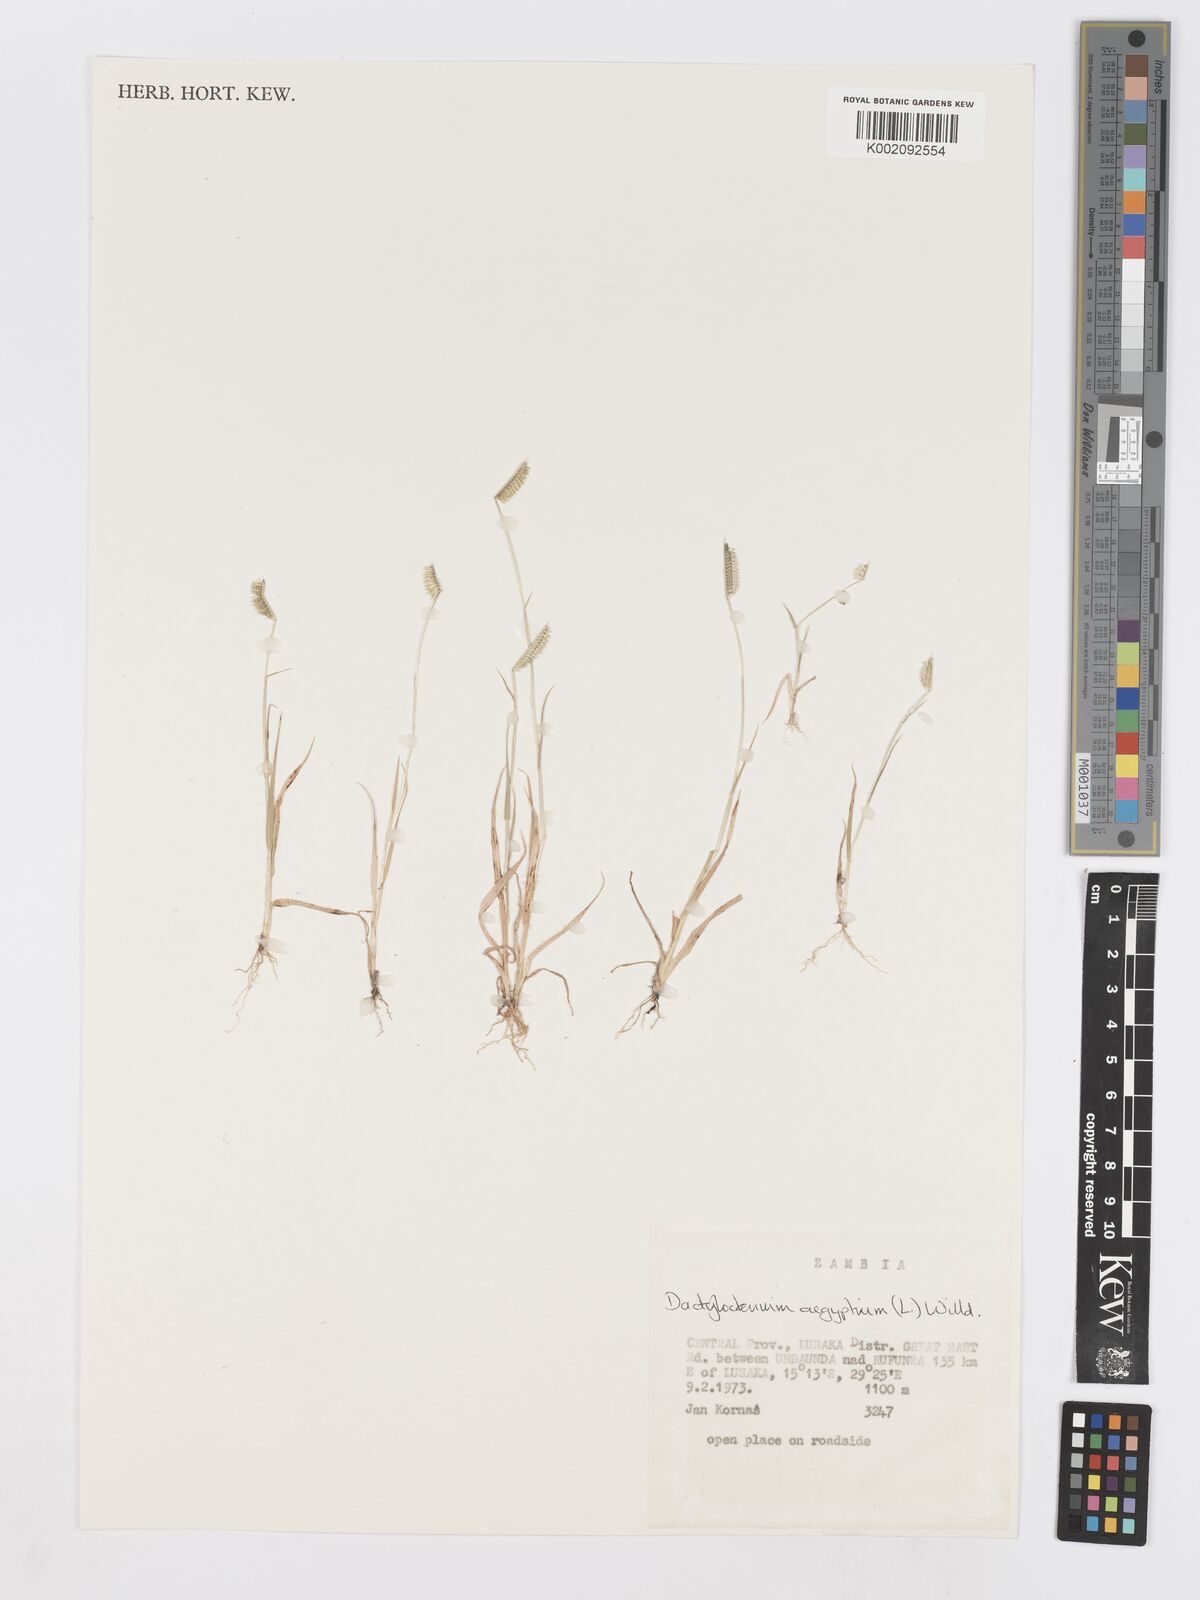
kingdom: Plantae
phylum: Tracheophyta
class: Liliopsida
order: Poales
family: Poaceae
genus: Dactyloctenium
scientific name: Dactyloctenium aegyptium
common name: Egyptian grass
